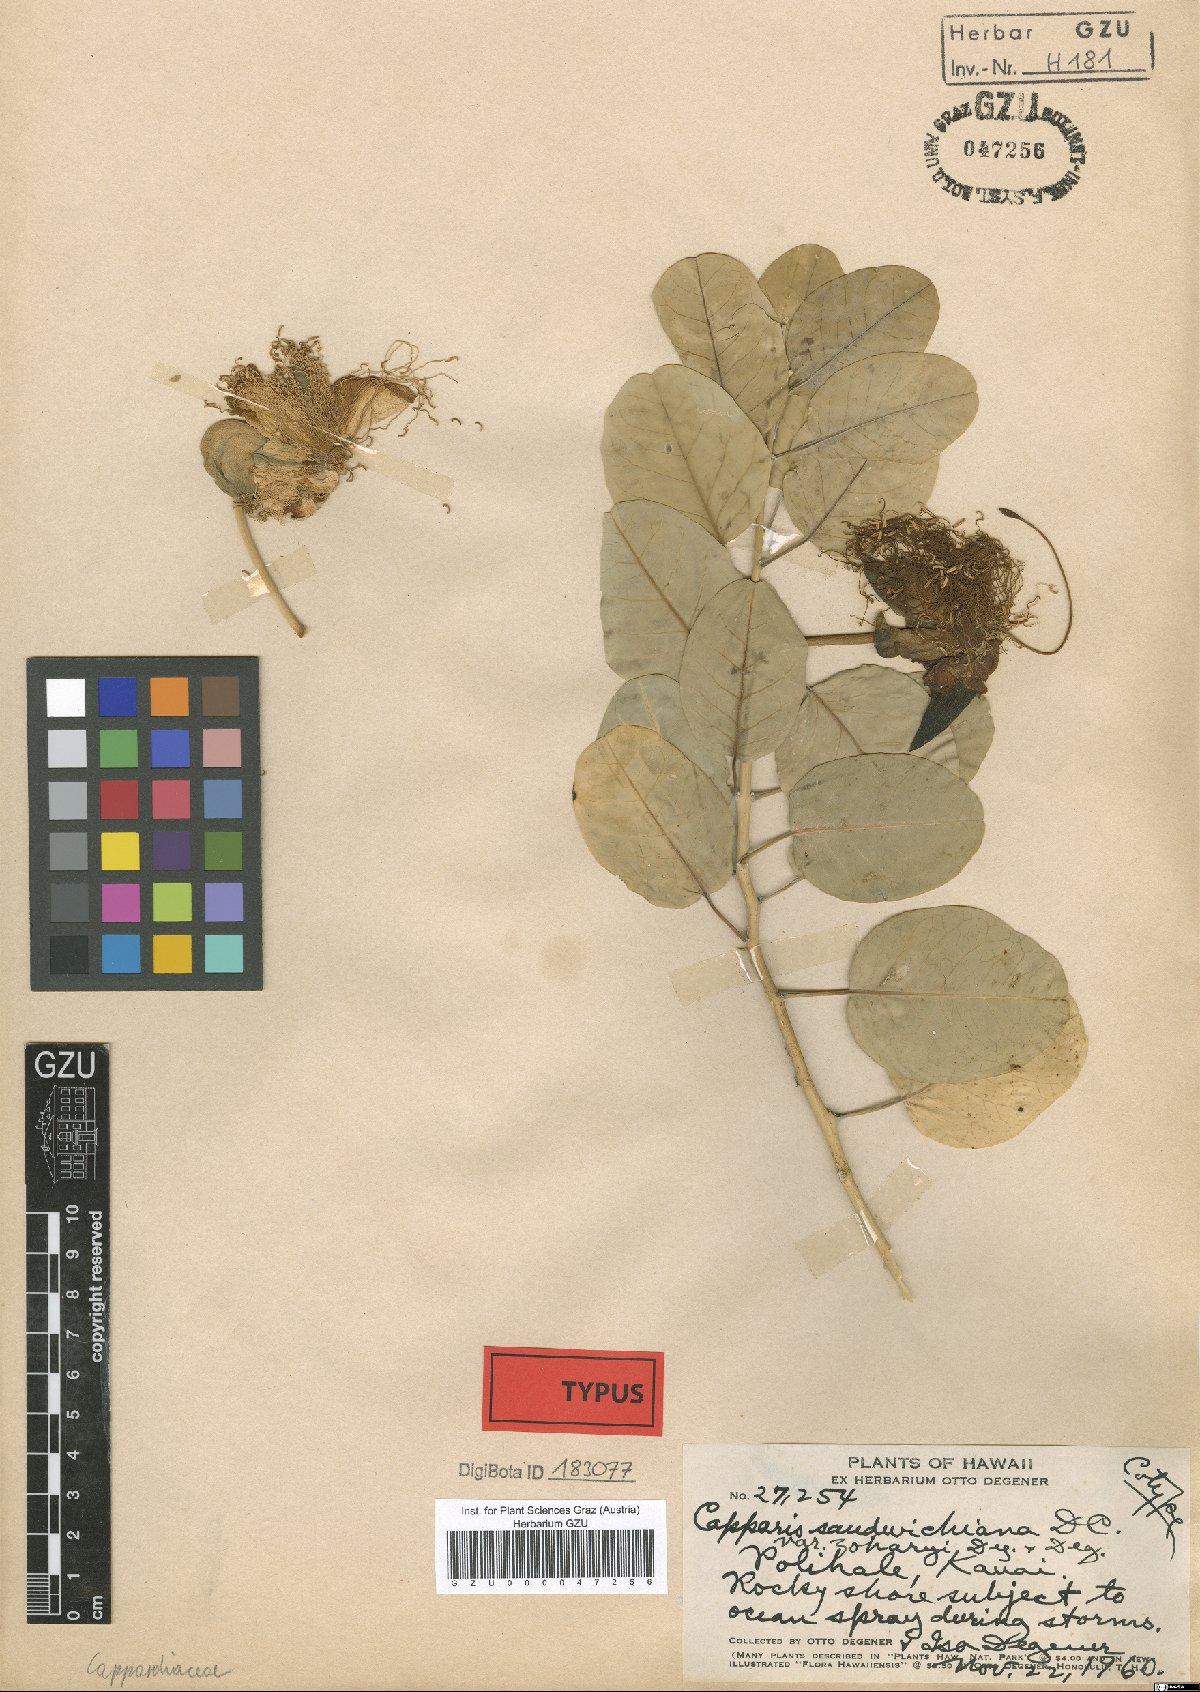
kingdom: Plantae
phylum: Tracheophyta
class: Magnoliopsida
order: Brassicales
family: Capparaceae
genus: Capparis
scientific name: Capparis spinosa
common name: Caper
